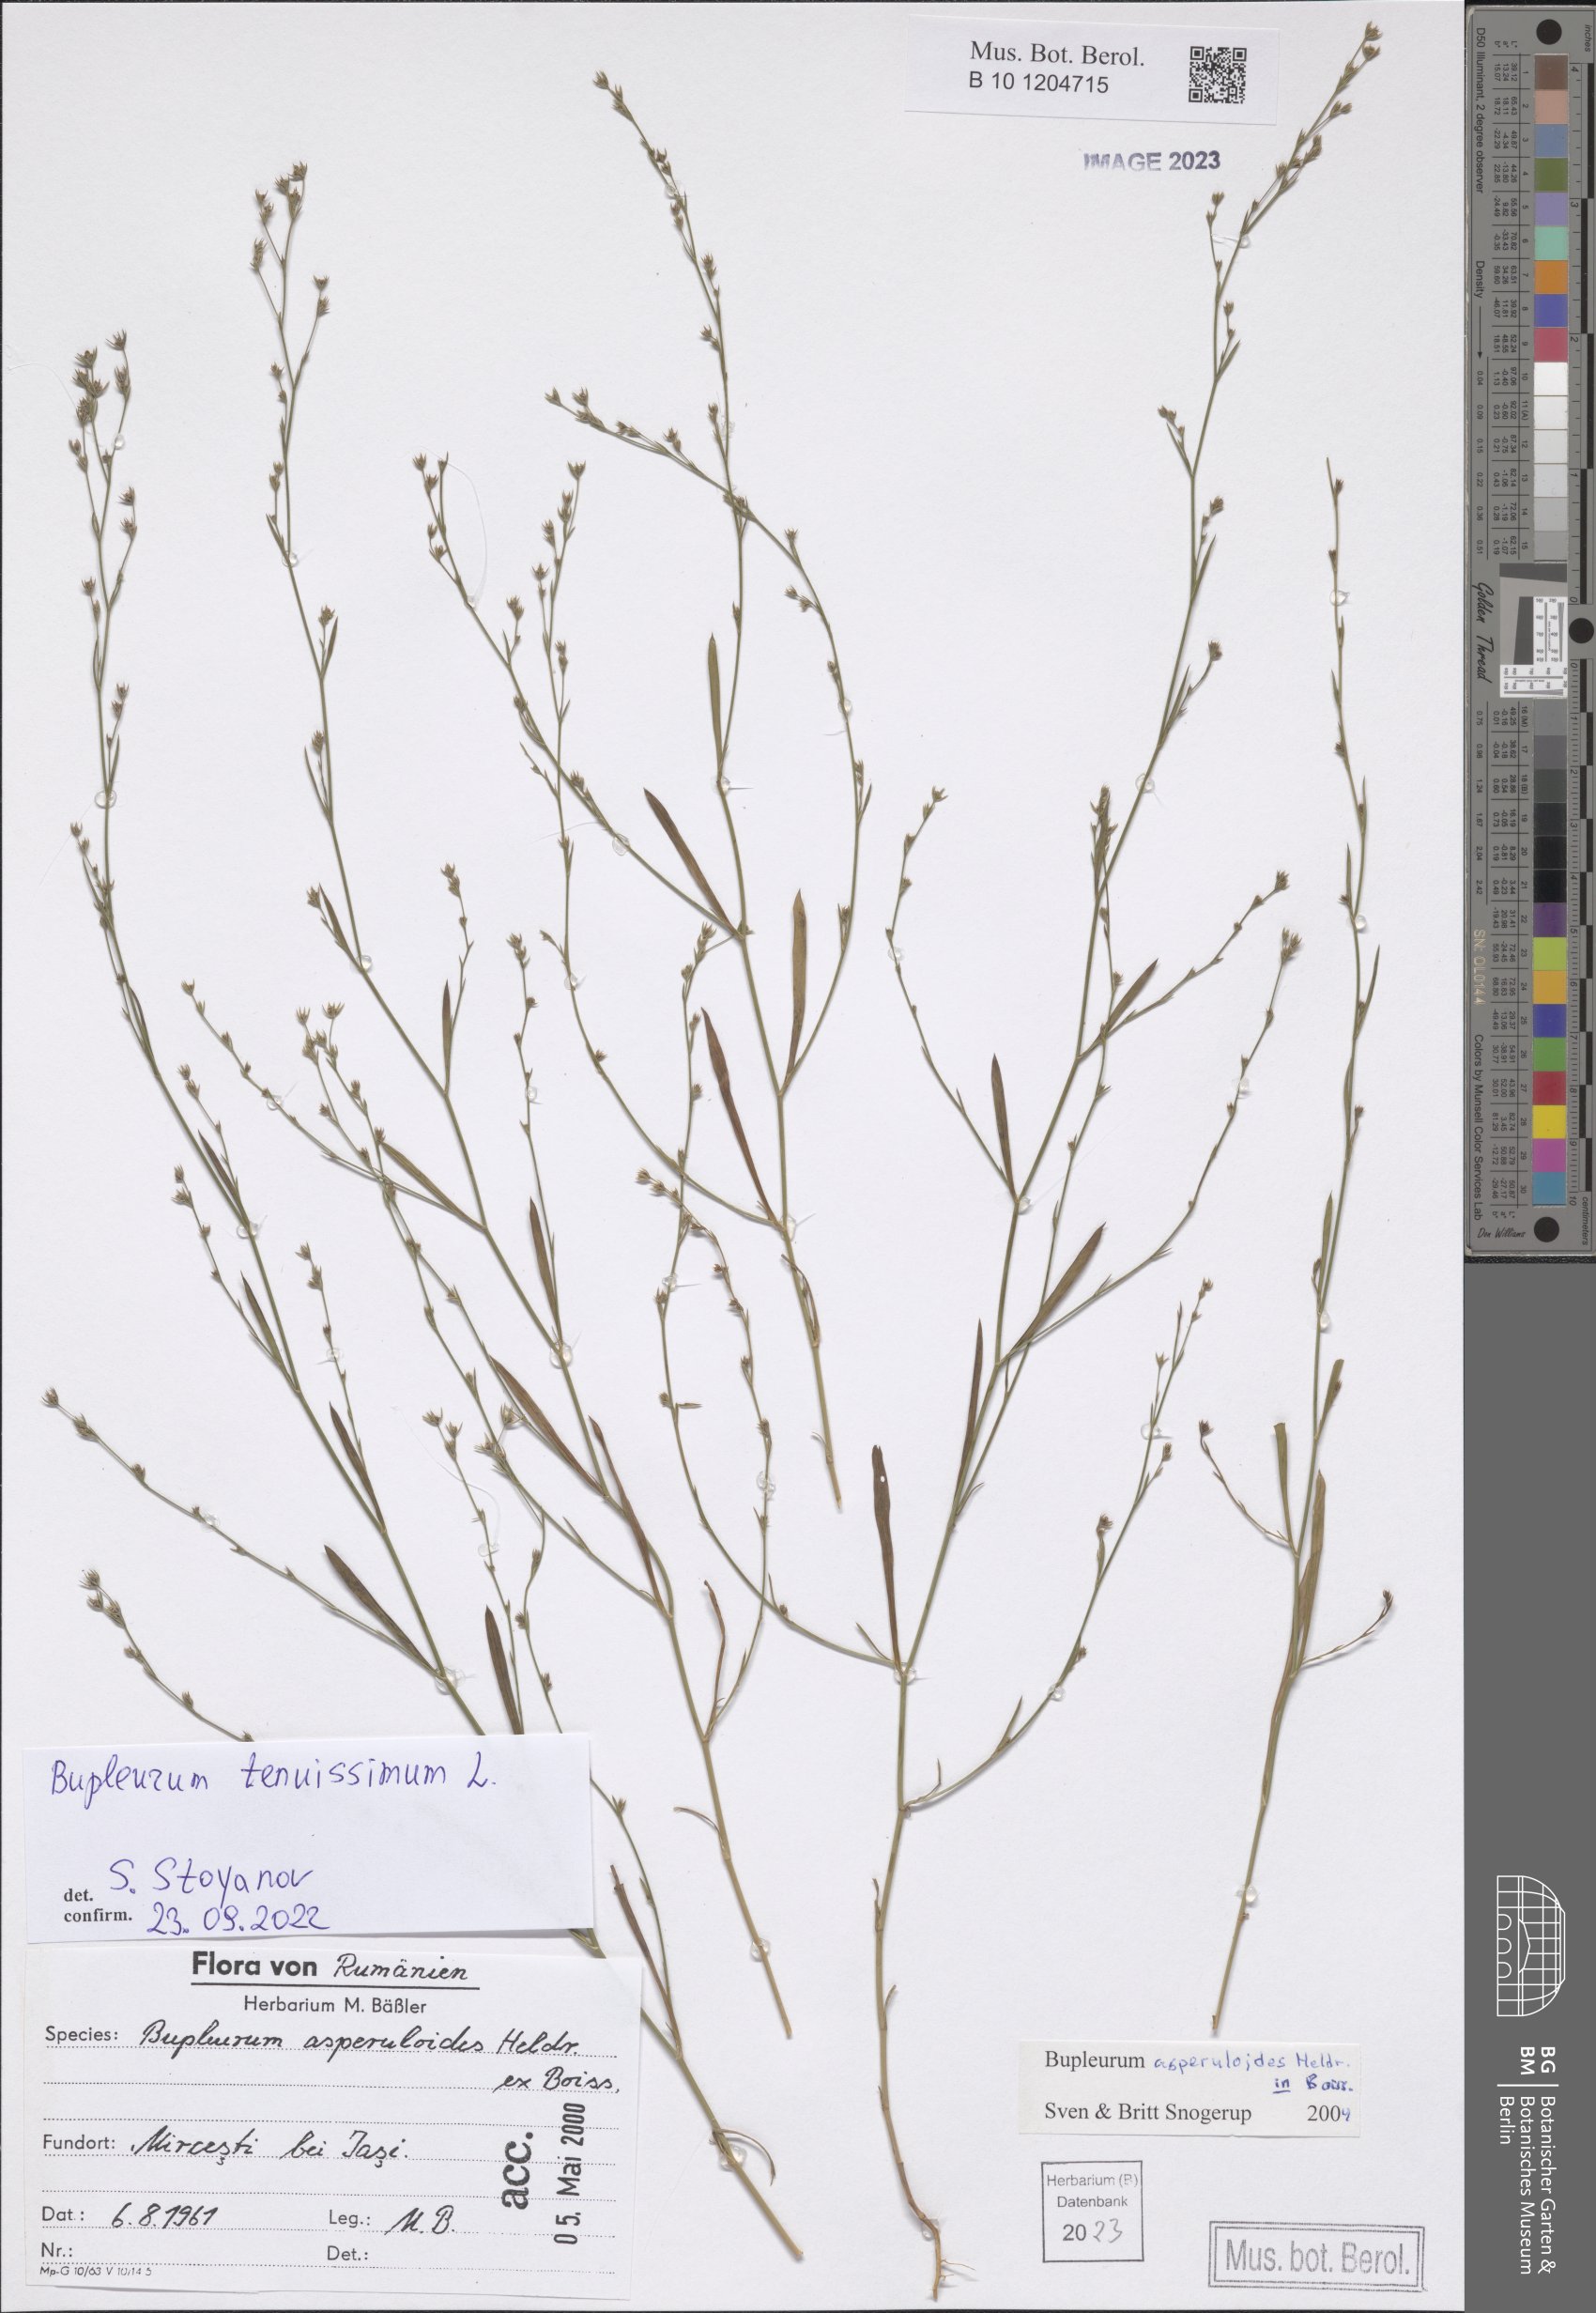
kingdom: Plantae
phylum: Tracheophyta
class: Magnoliopsida
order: Apiales
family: Apiaceae
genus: Bupleurum
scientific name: Bupleurum tenuissimum
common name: Slender hare's-ear
